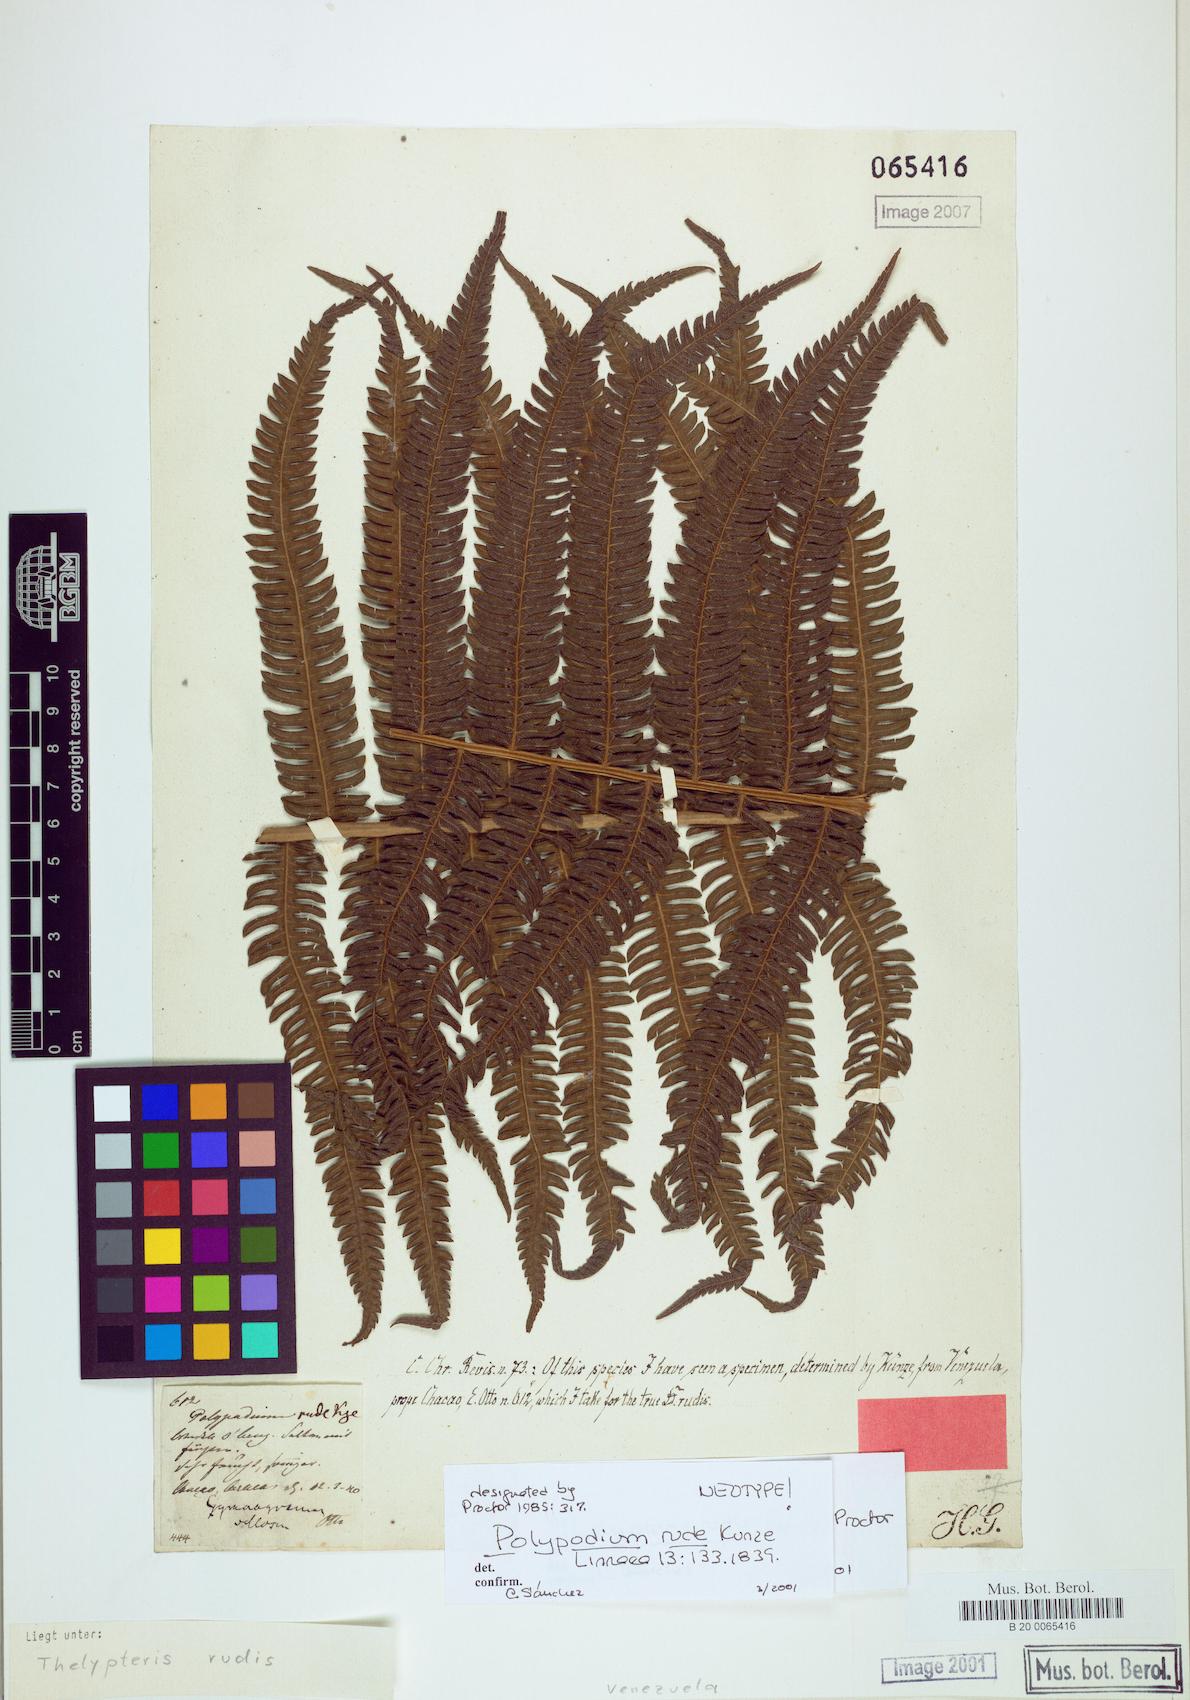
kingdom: Plantae
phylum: Tracheophyta
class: Polypodiopsida
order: Polypodiales
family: Thelypteridaceae
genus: Amauropelta
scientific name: Amauropelta rudis
